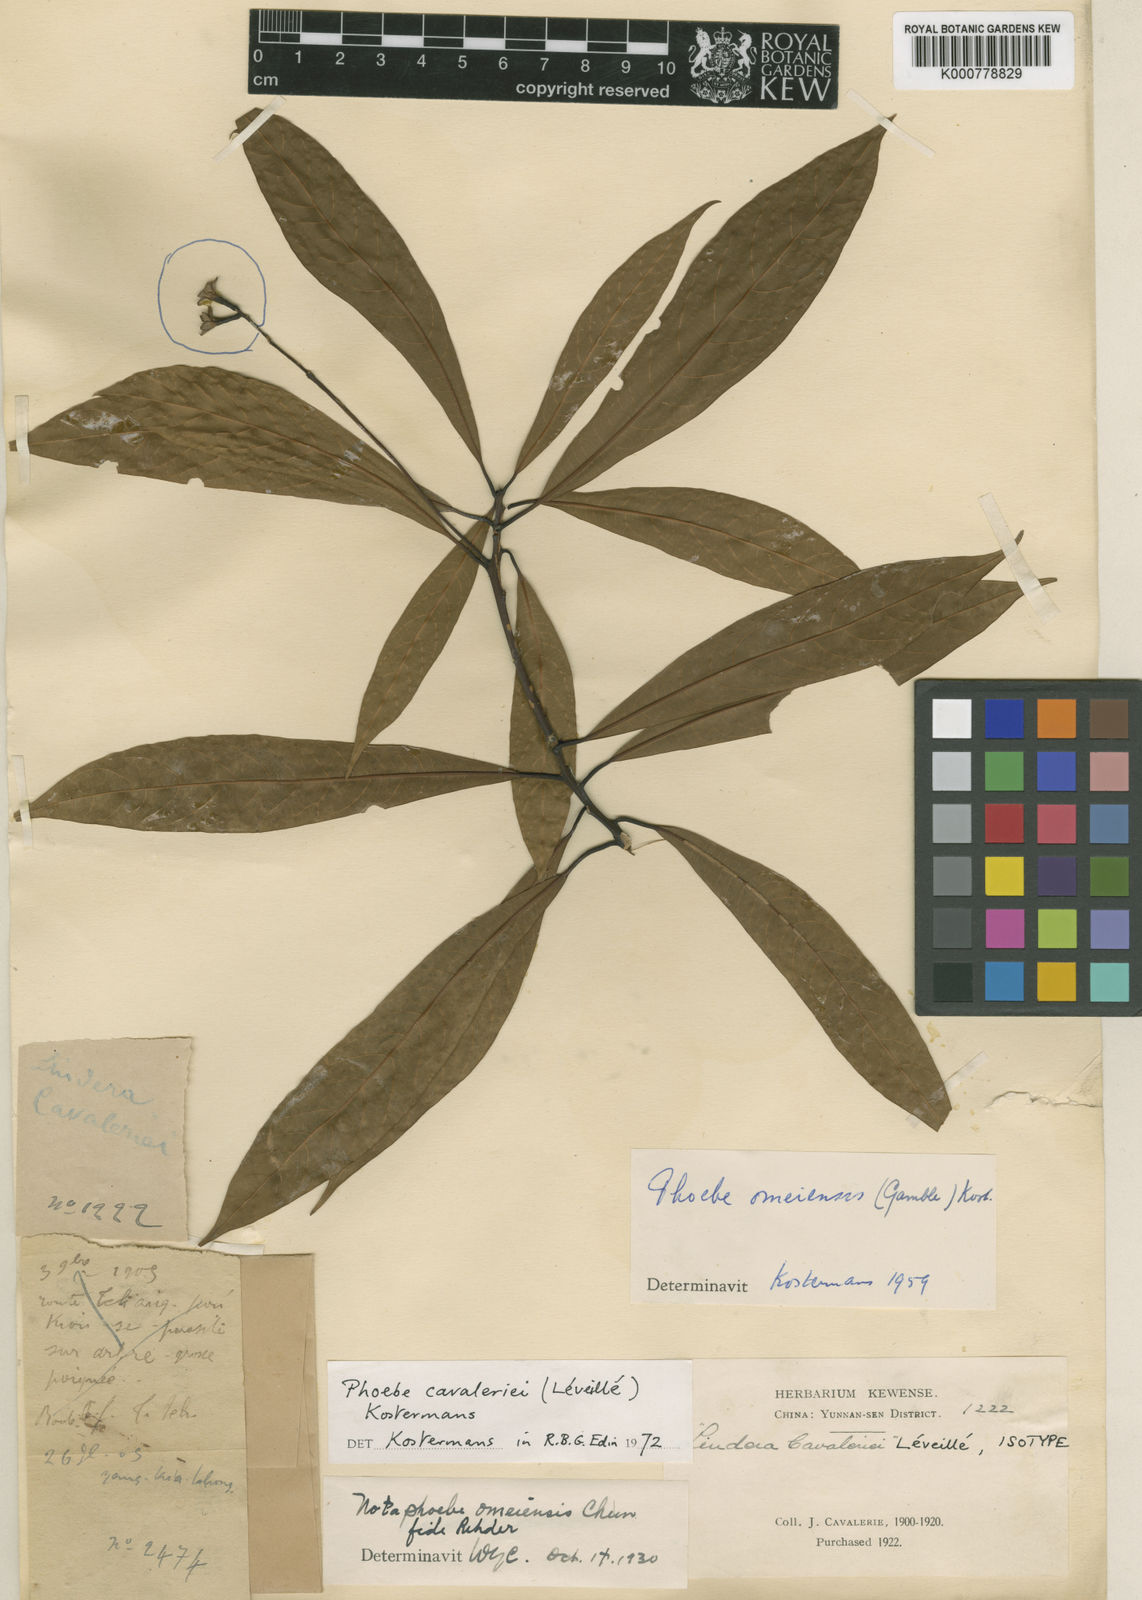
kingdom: Plantae
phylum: Tracheophyta
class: Magnoliopsida
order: Laurales
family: Lauraceae
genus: Phoebe
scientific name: Phoebe
